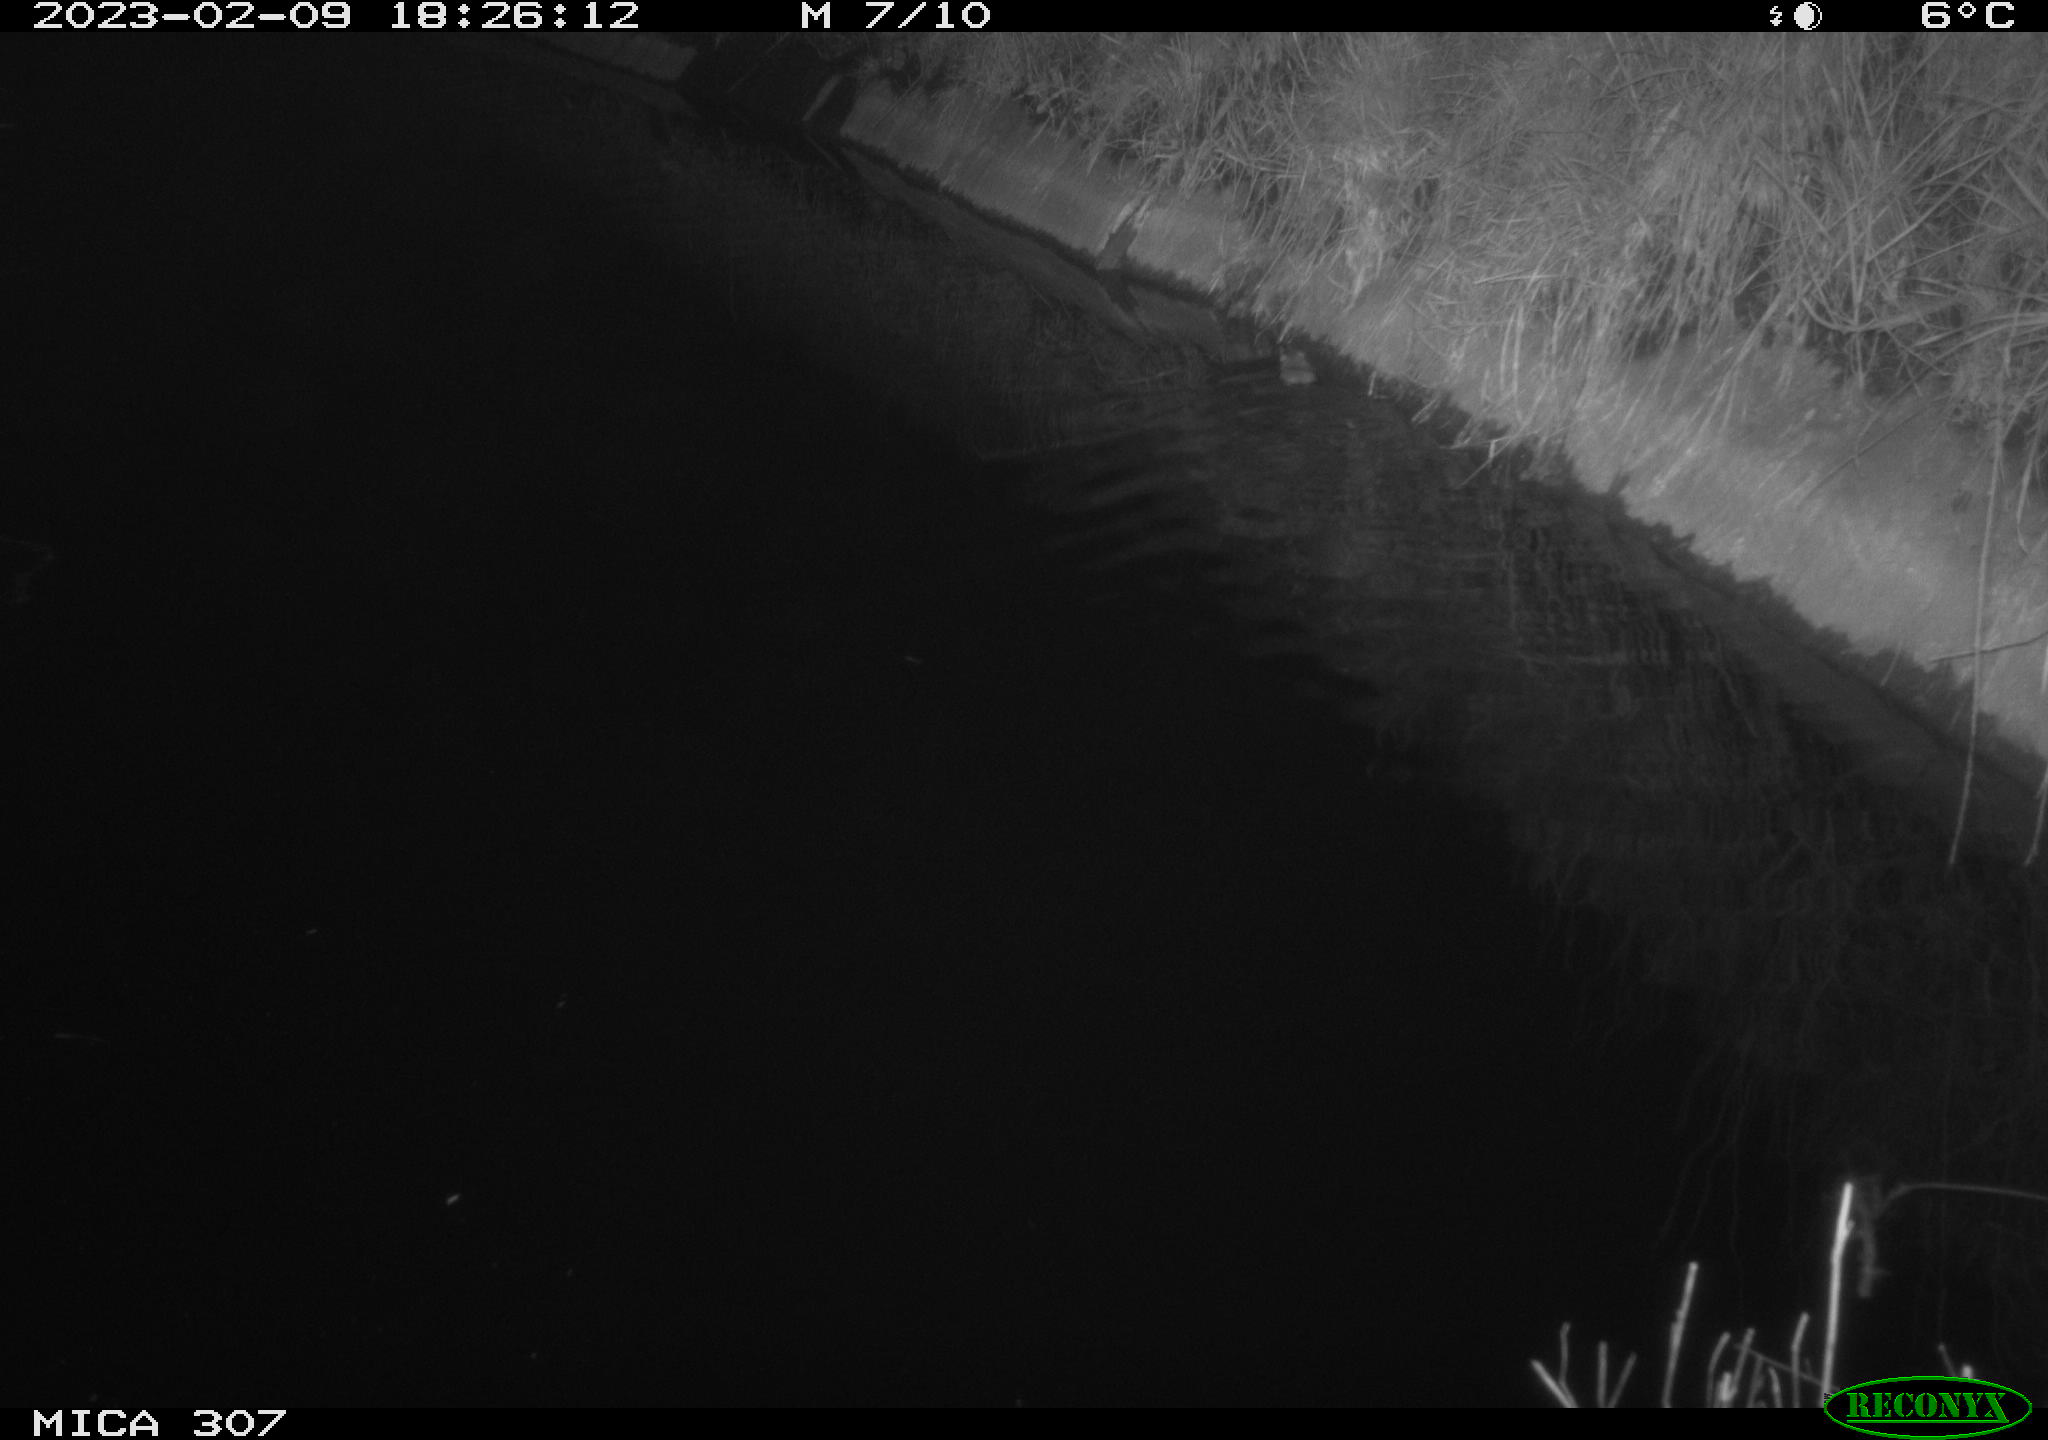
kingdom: Animalia
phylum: Chordata
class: Mammalia
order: Rodentia
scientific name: Rodentia
